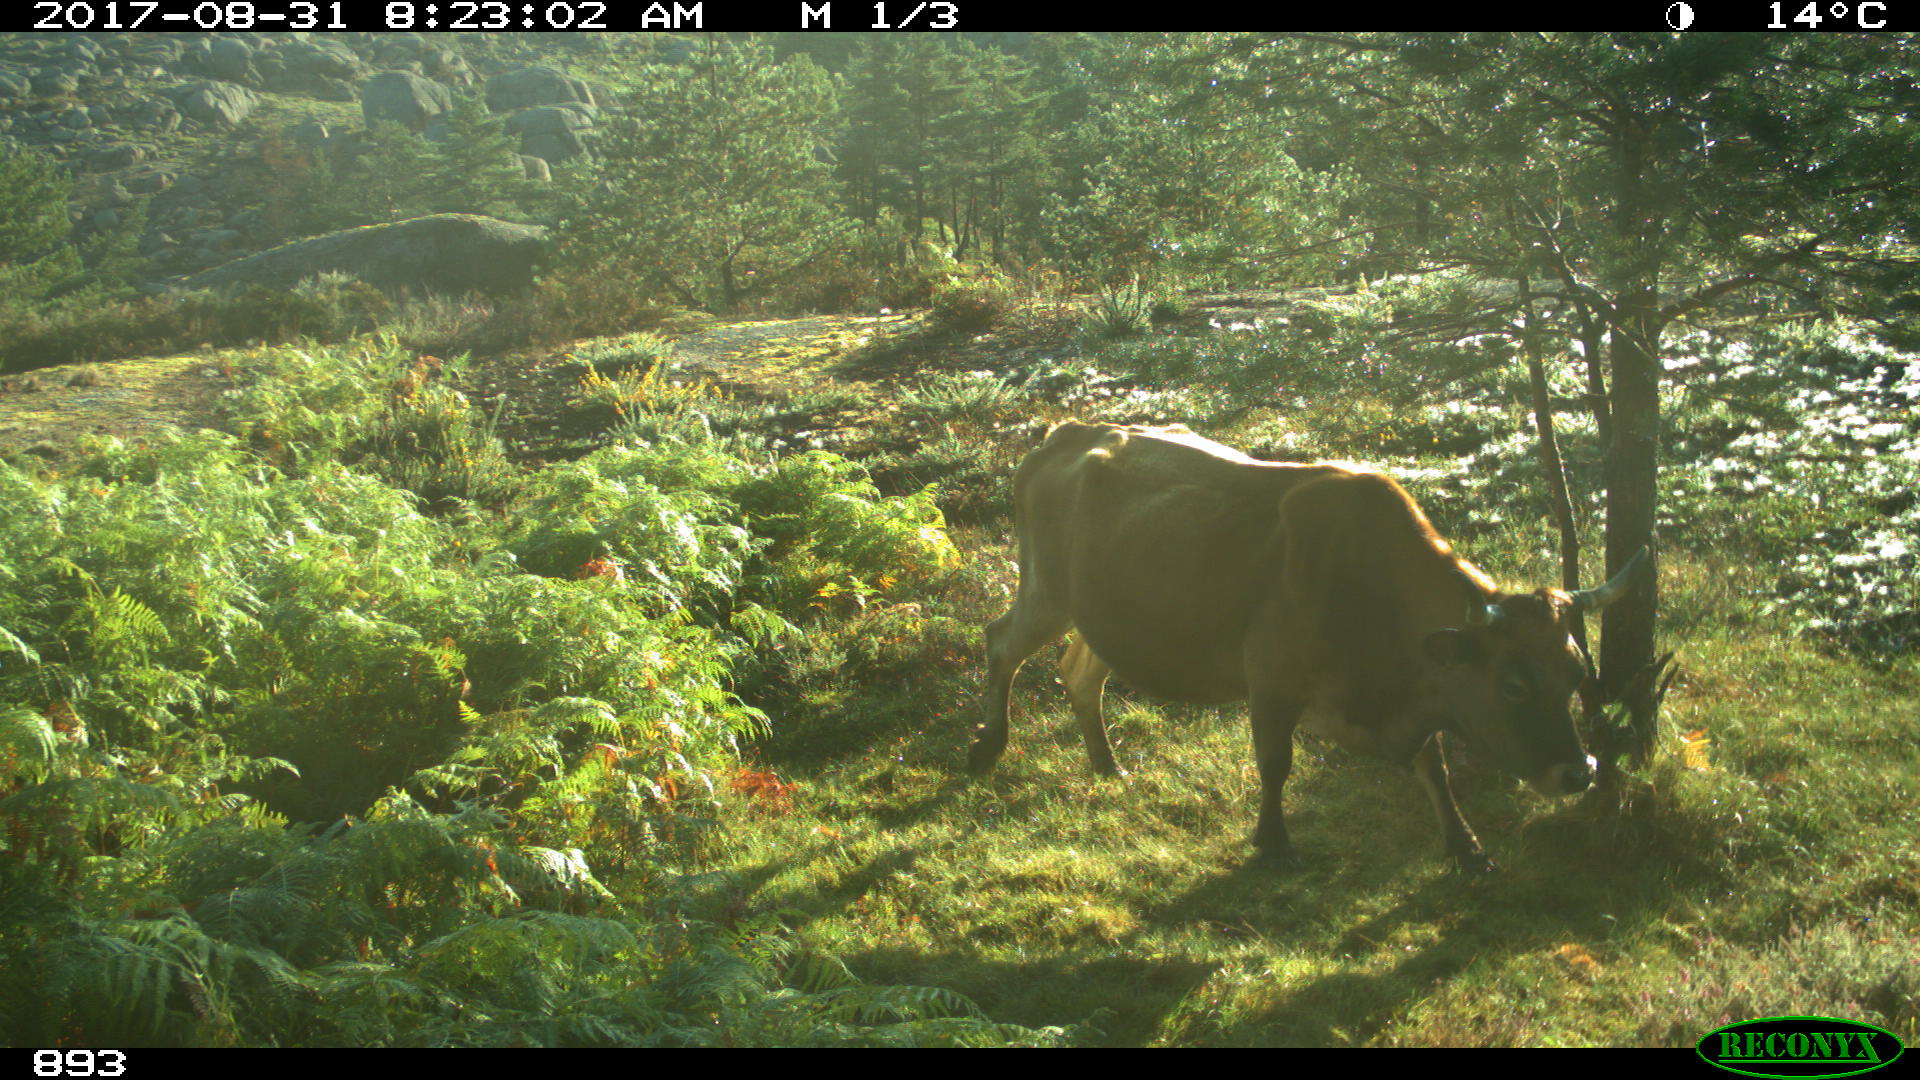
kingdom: Animalia
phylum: Chordata
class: Mammalia
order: Artiodactyla
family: Bovidae
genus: Bos
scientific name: Bos taurus
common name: Domesticated cattle
